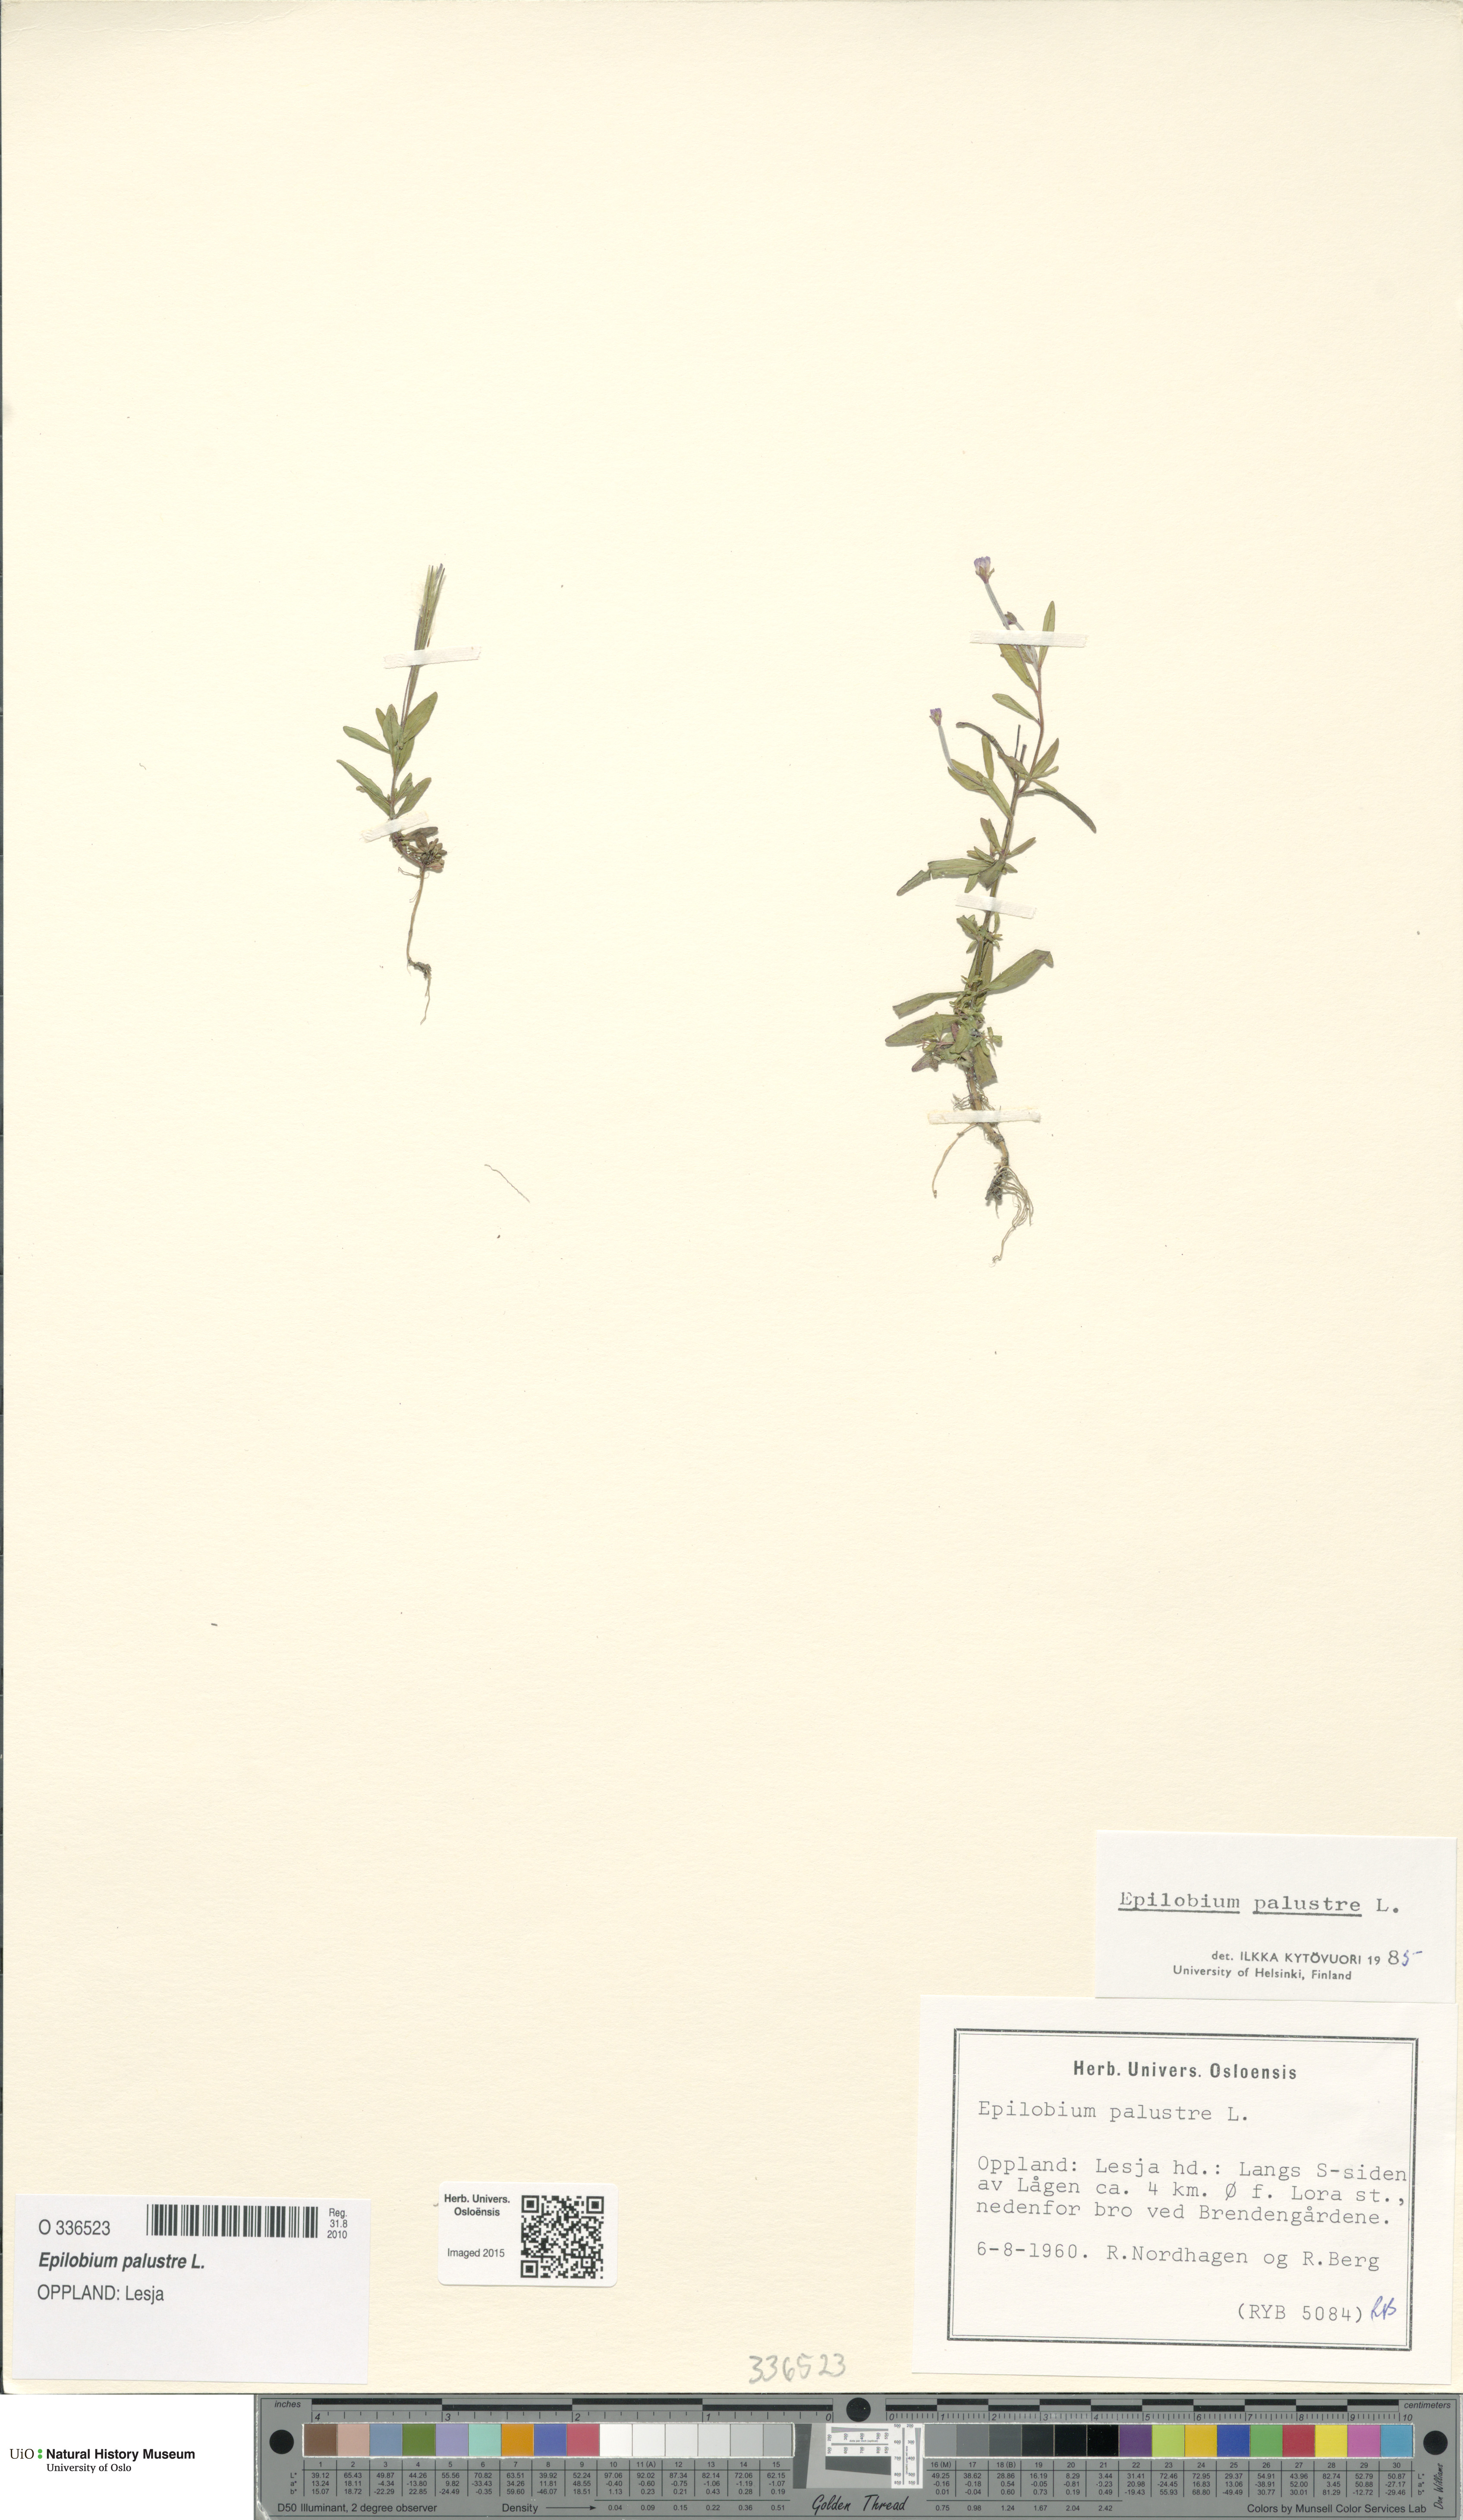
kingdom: Plantae
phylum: Tracheophyta
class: Magnoliopsida
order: Myrtales
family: Onagraceae
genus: Epilobium
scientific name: Epilobium palustre
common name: Marsh willowherb
